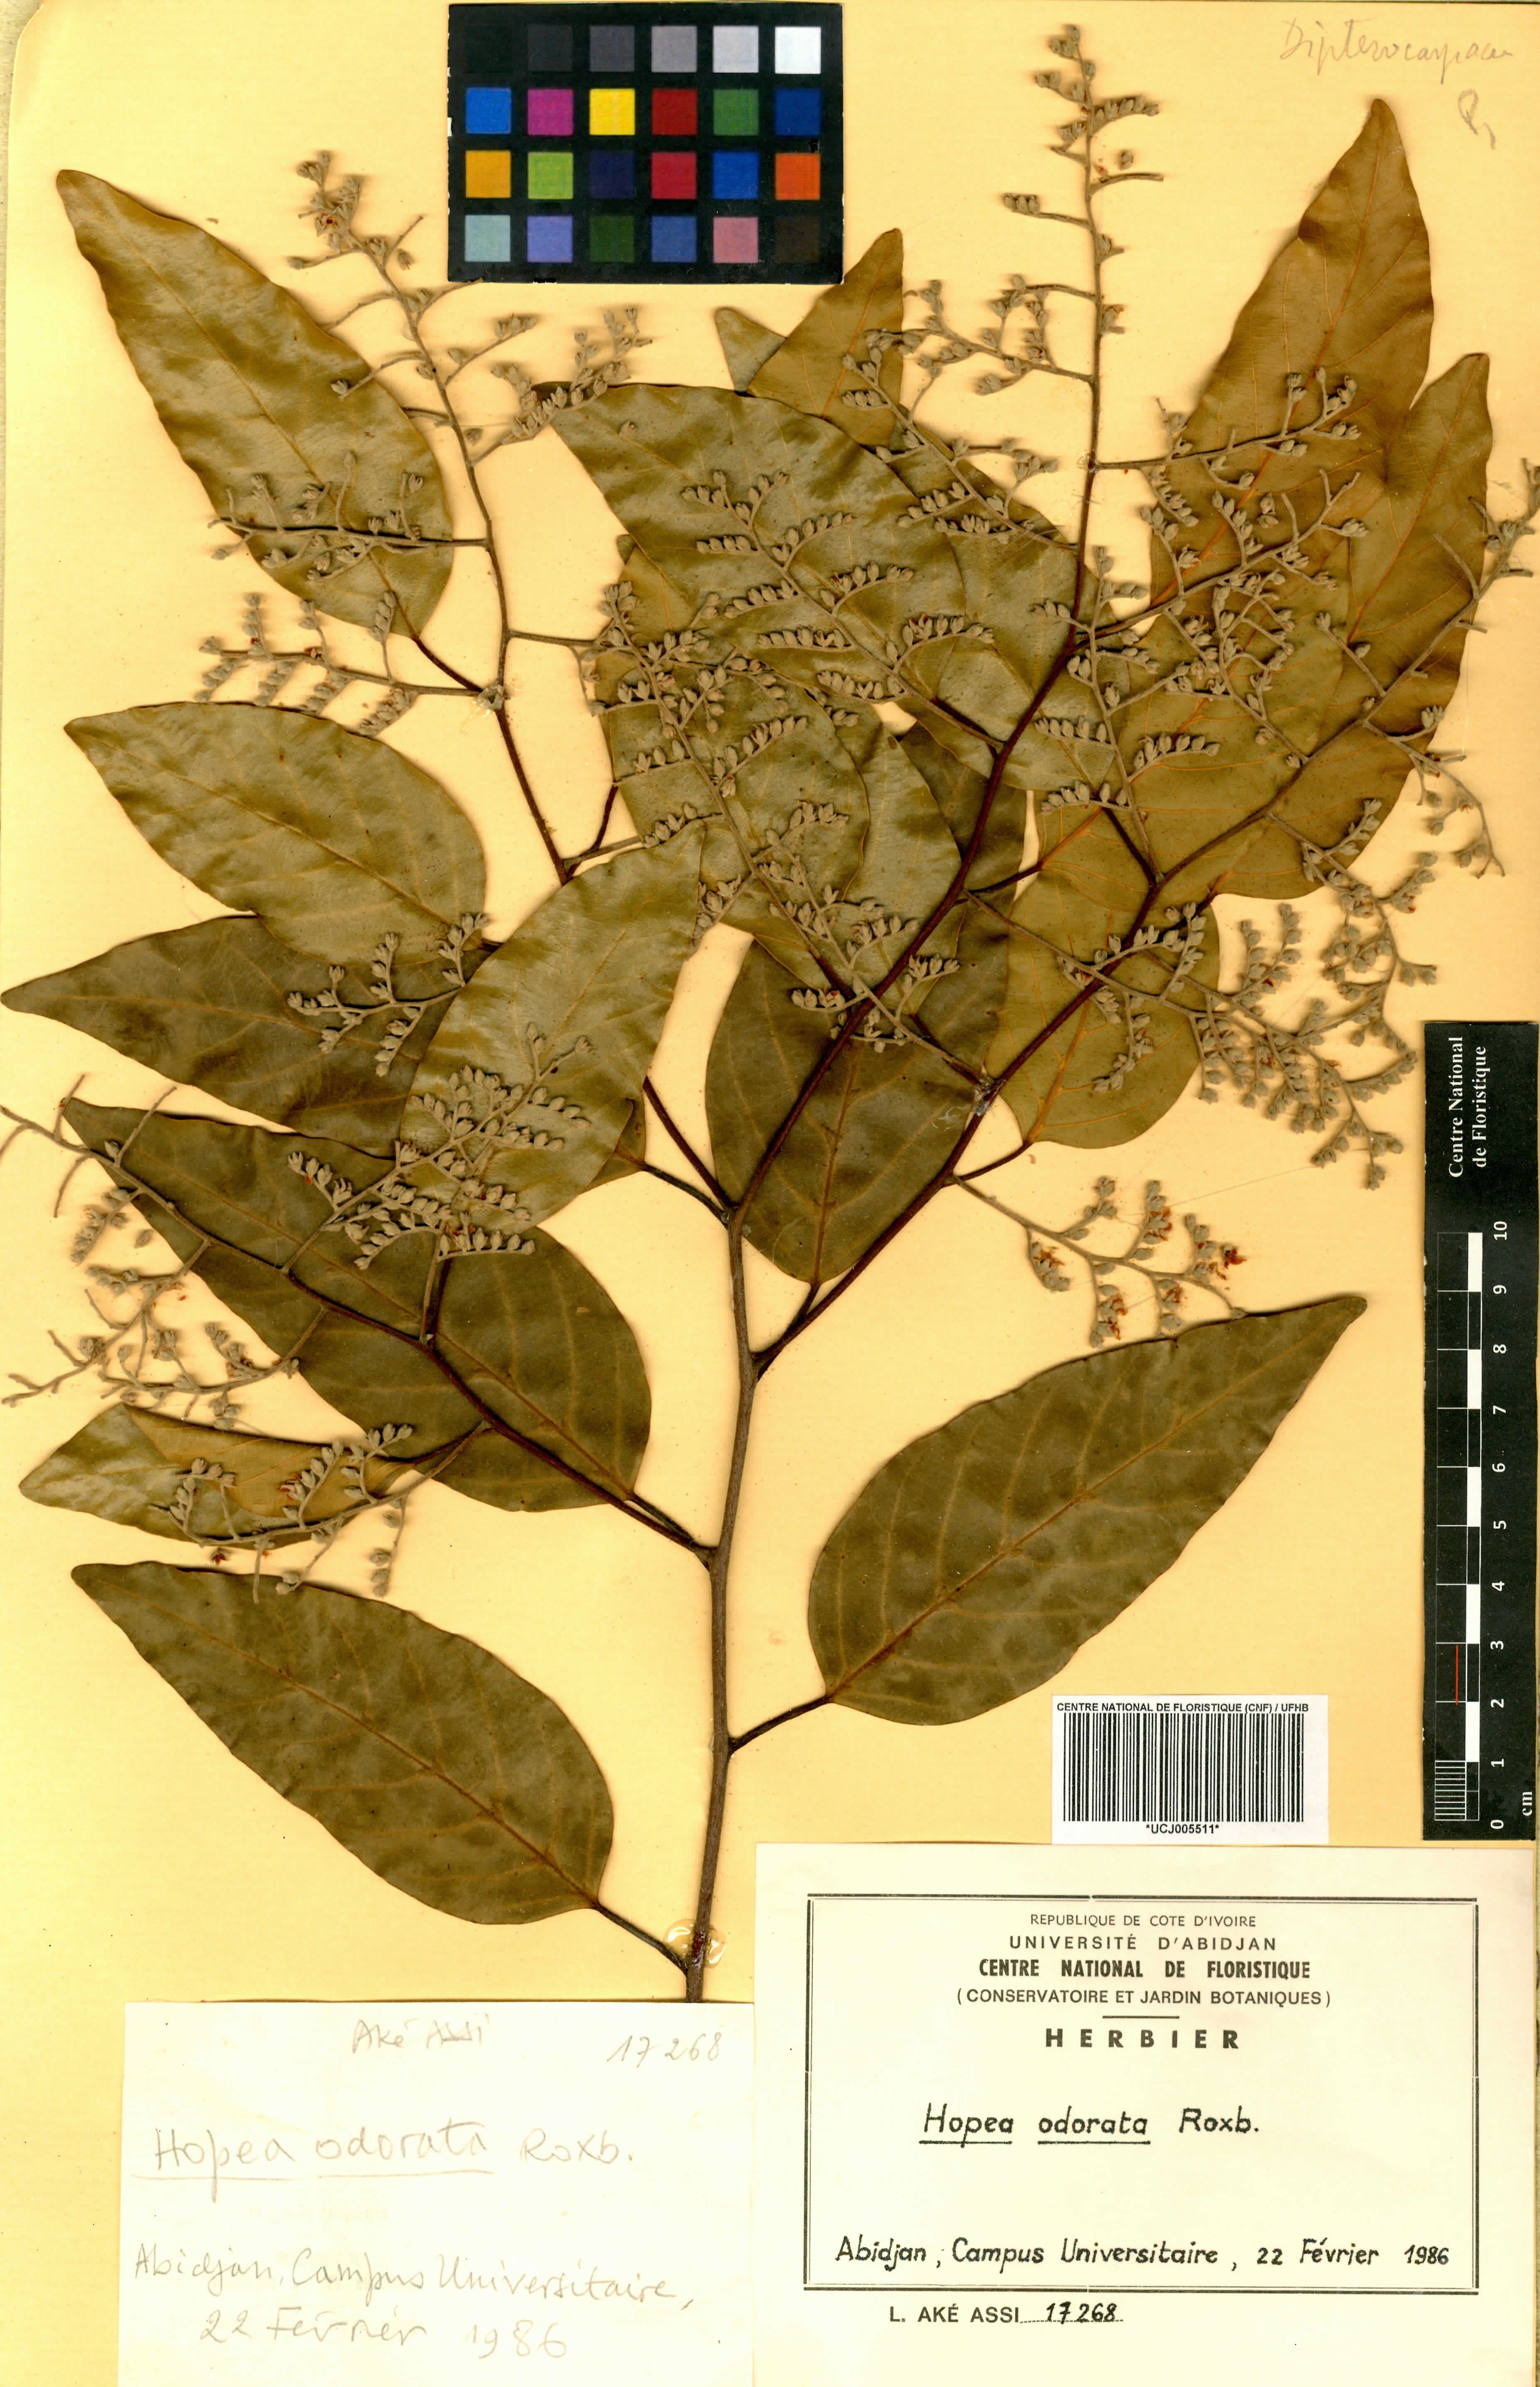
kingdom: Plantae
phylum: Tracheophyta
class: Magnoliopsida
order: Malvales
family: Dipterocarpaceae
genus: Hopea
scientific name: Hopea odorata
